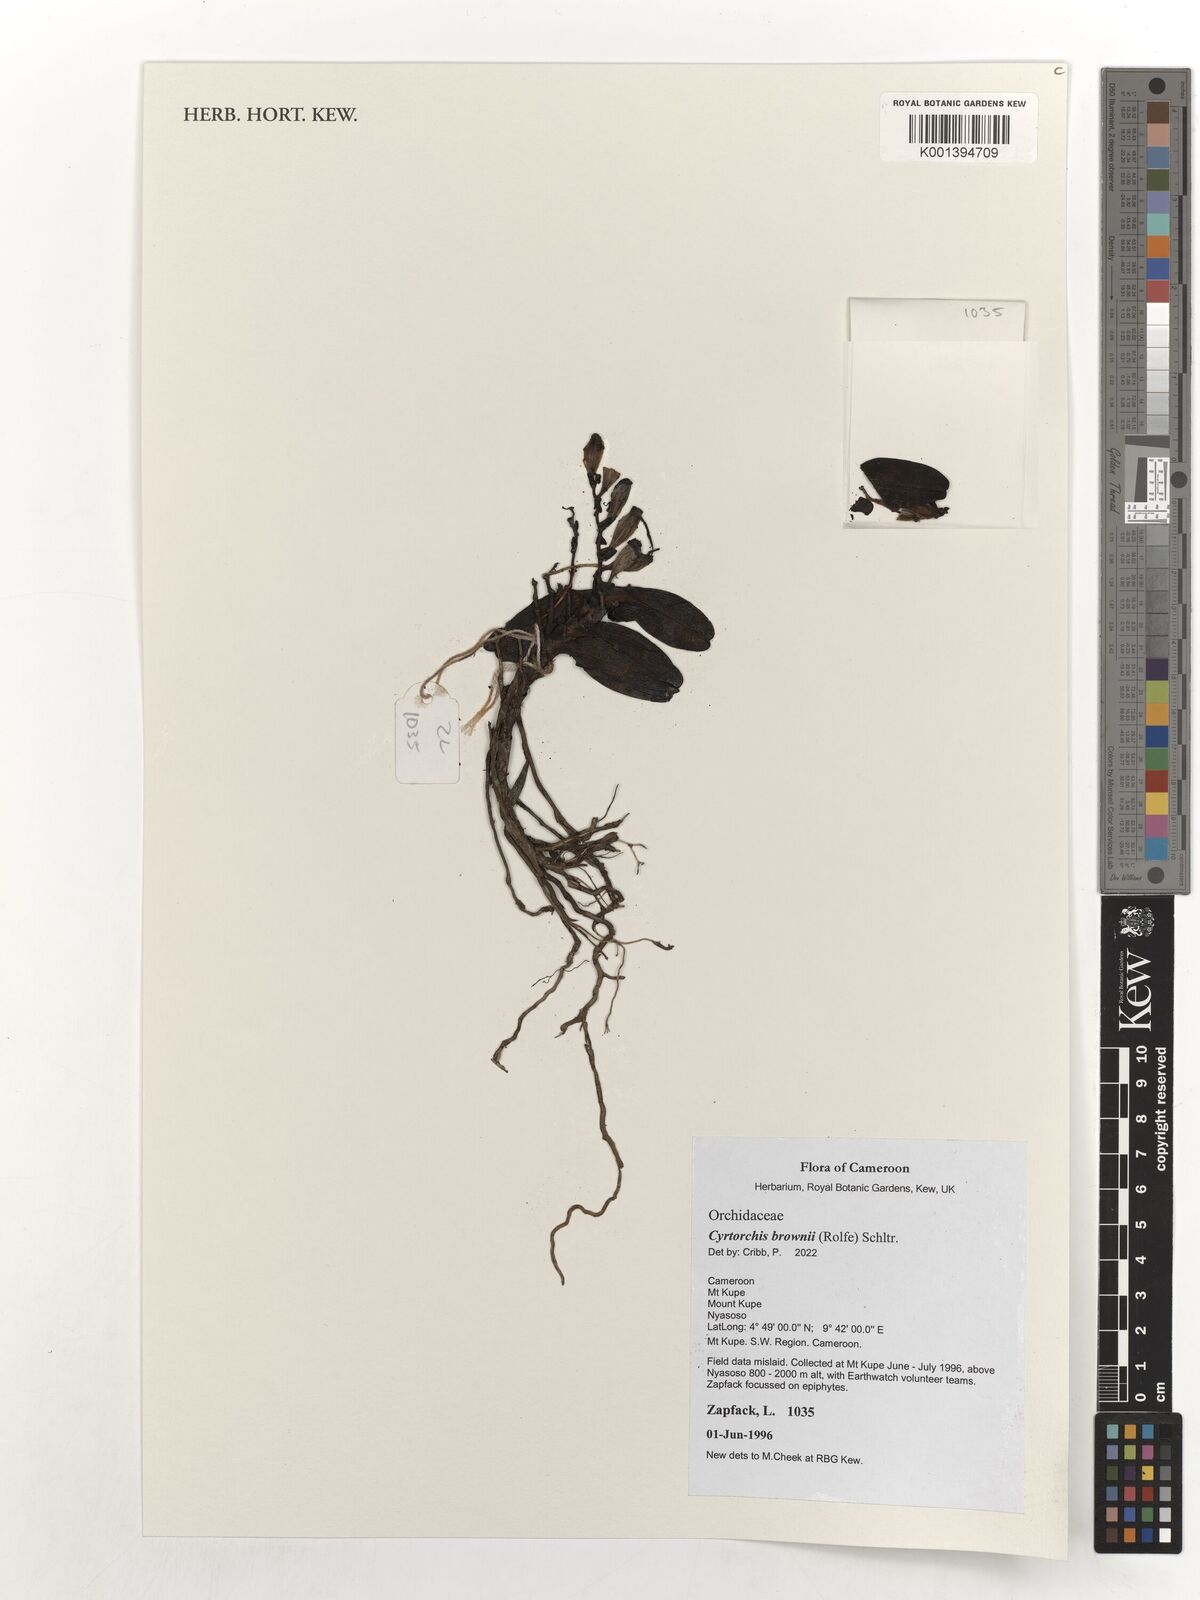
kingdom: Plantae
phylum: Tracheophyta
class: Liliopsida
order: Asparagales
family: Orchidaceae
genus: Cyrtorchis
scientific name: Cyrtorchis brownii
